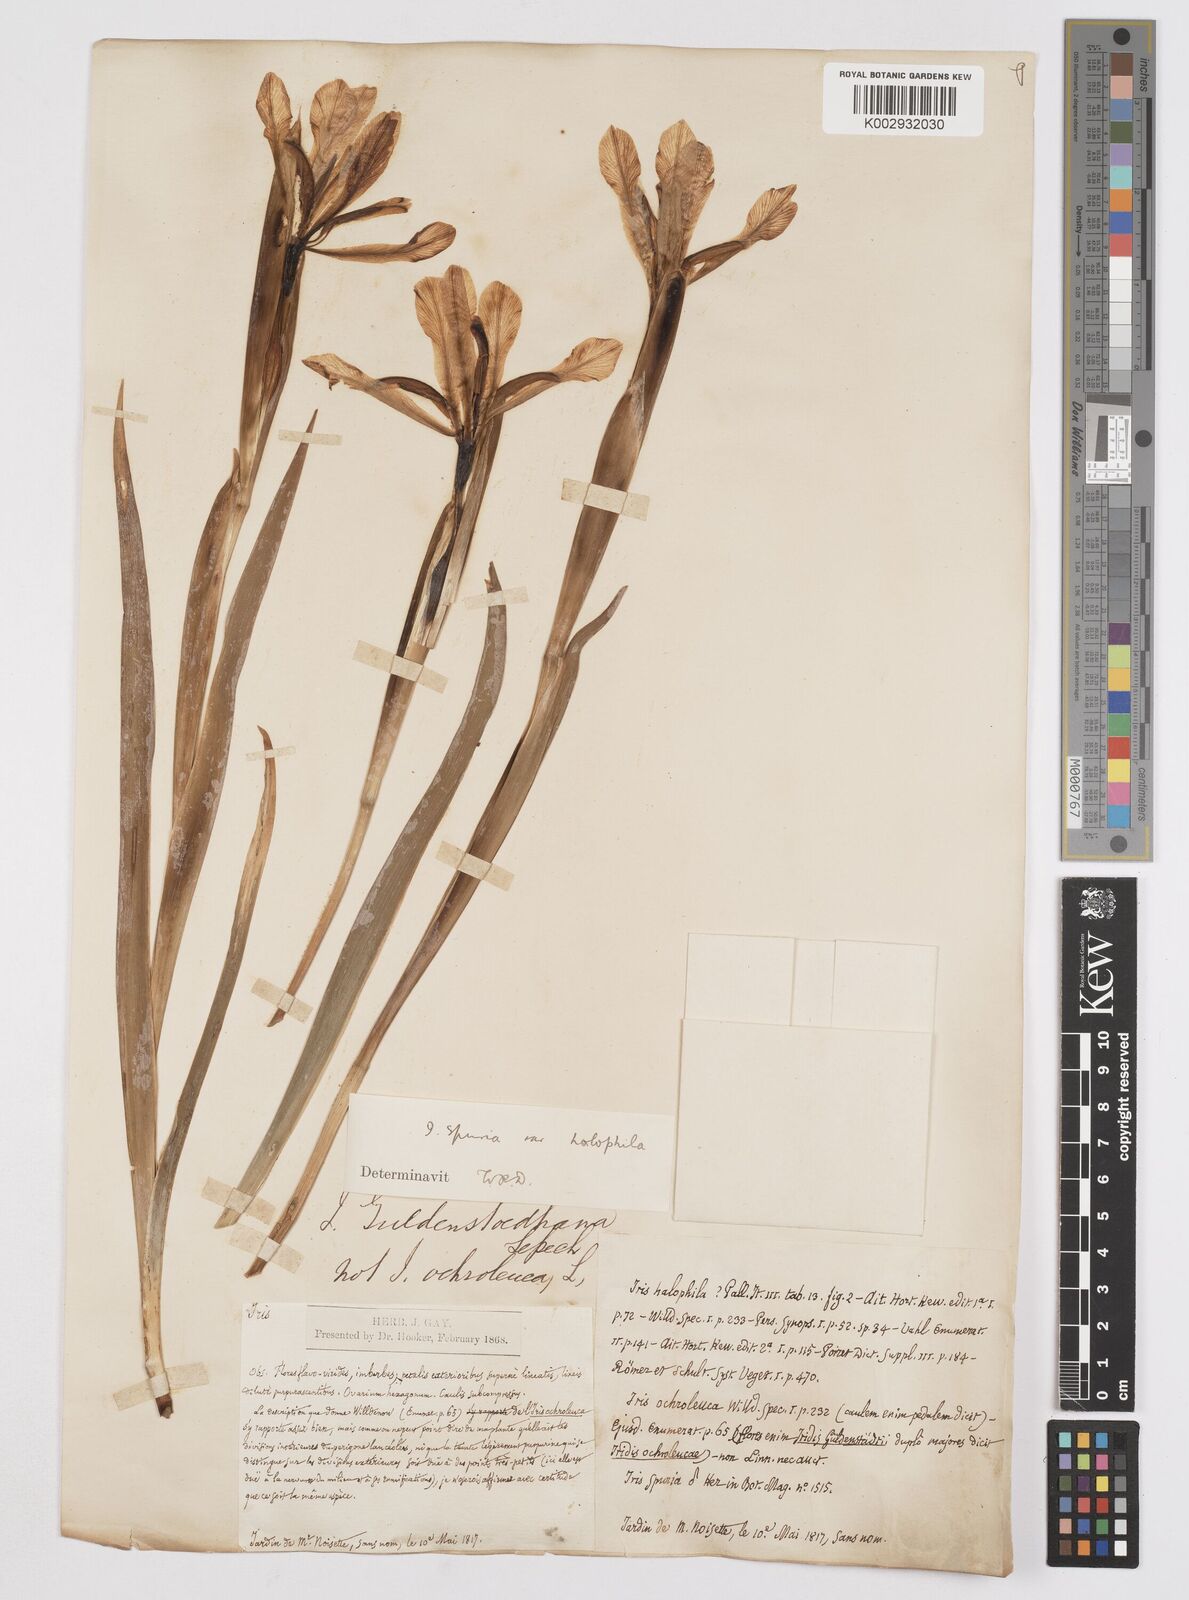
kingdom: Plantae
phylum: Tracheophyta
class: Liliopsida
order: Asparagales
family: Iridaceae
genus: Iris
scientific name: Iris halophila
